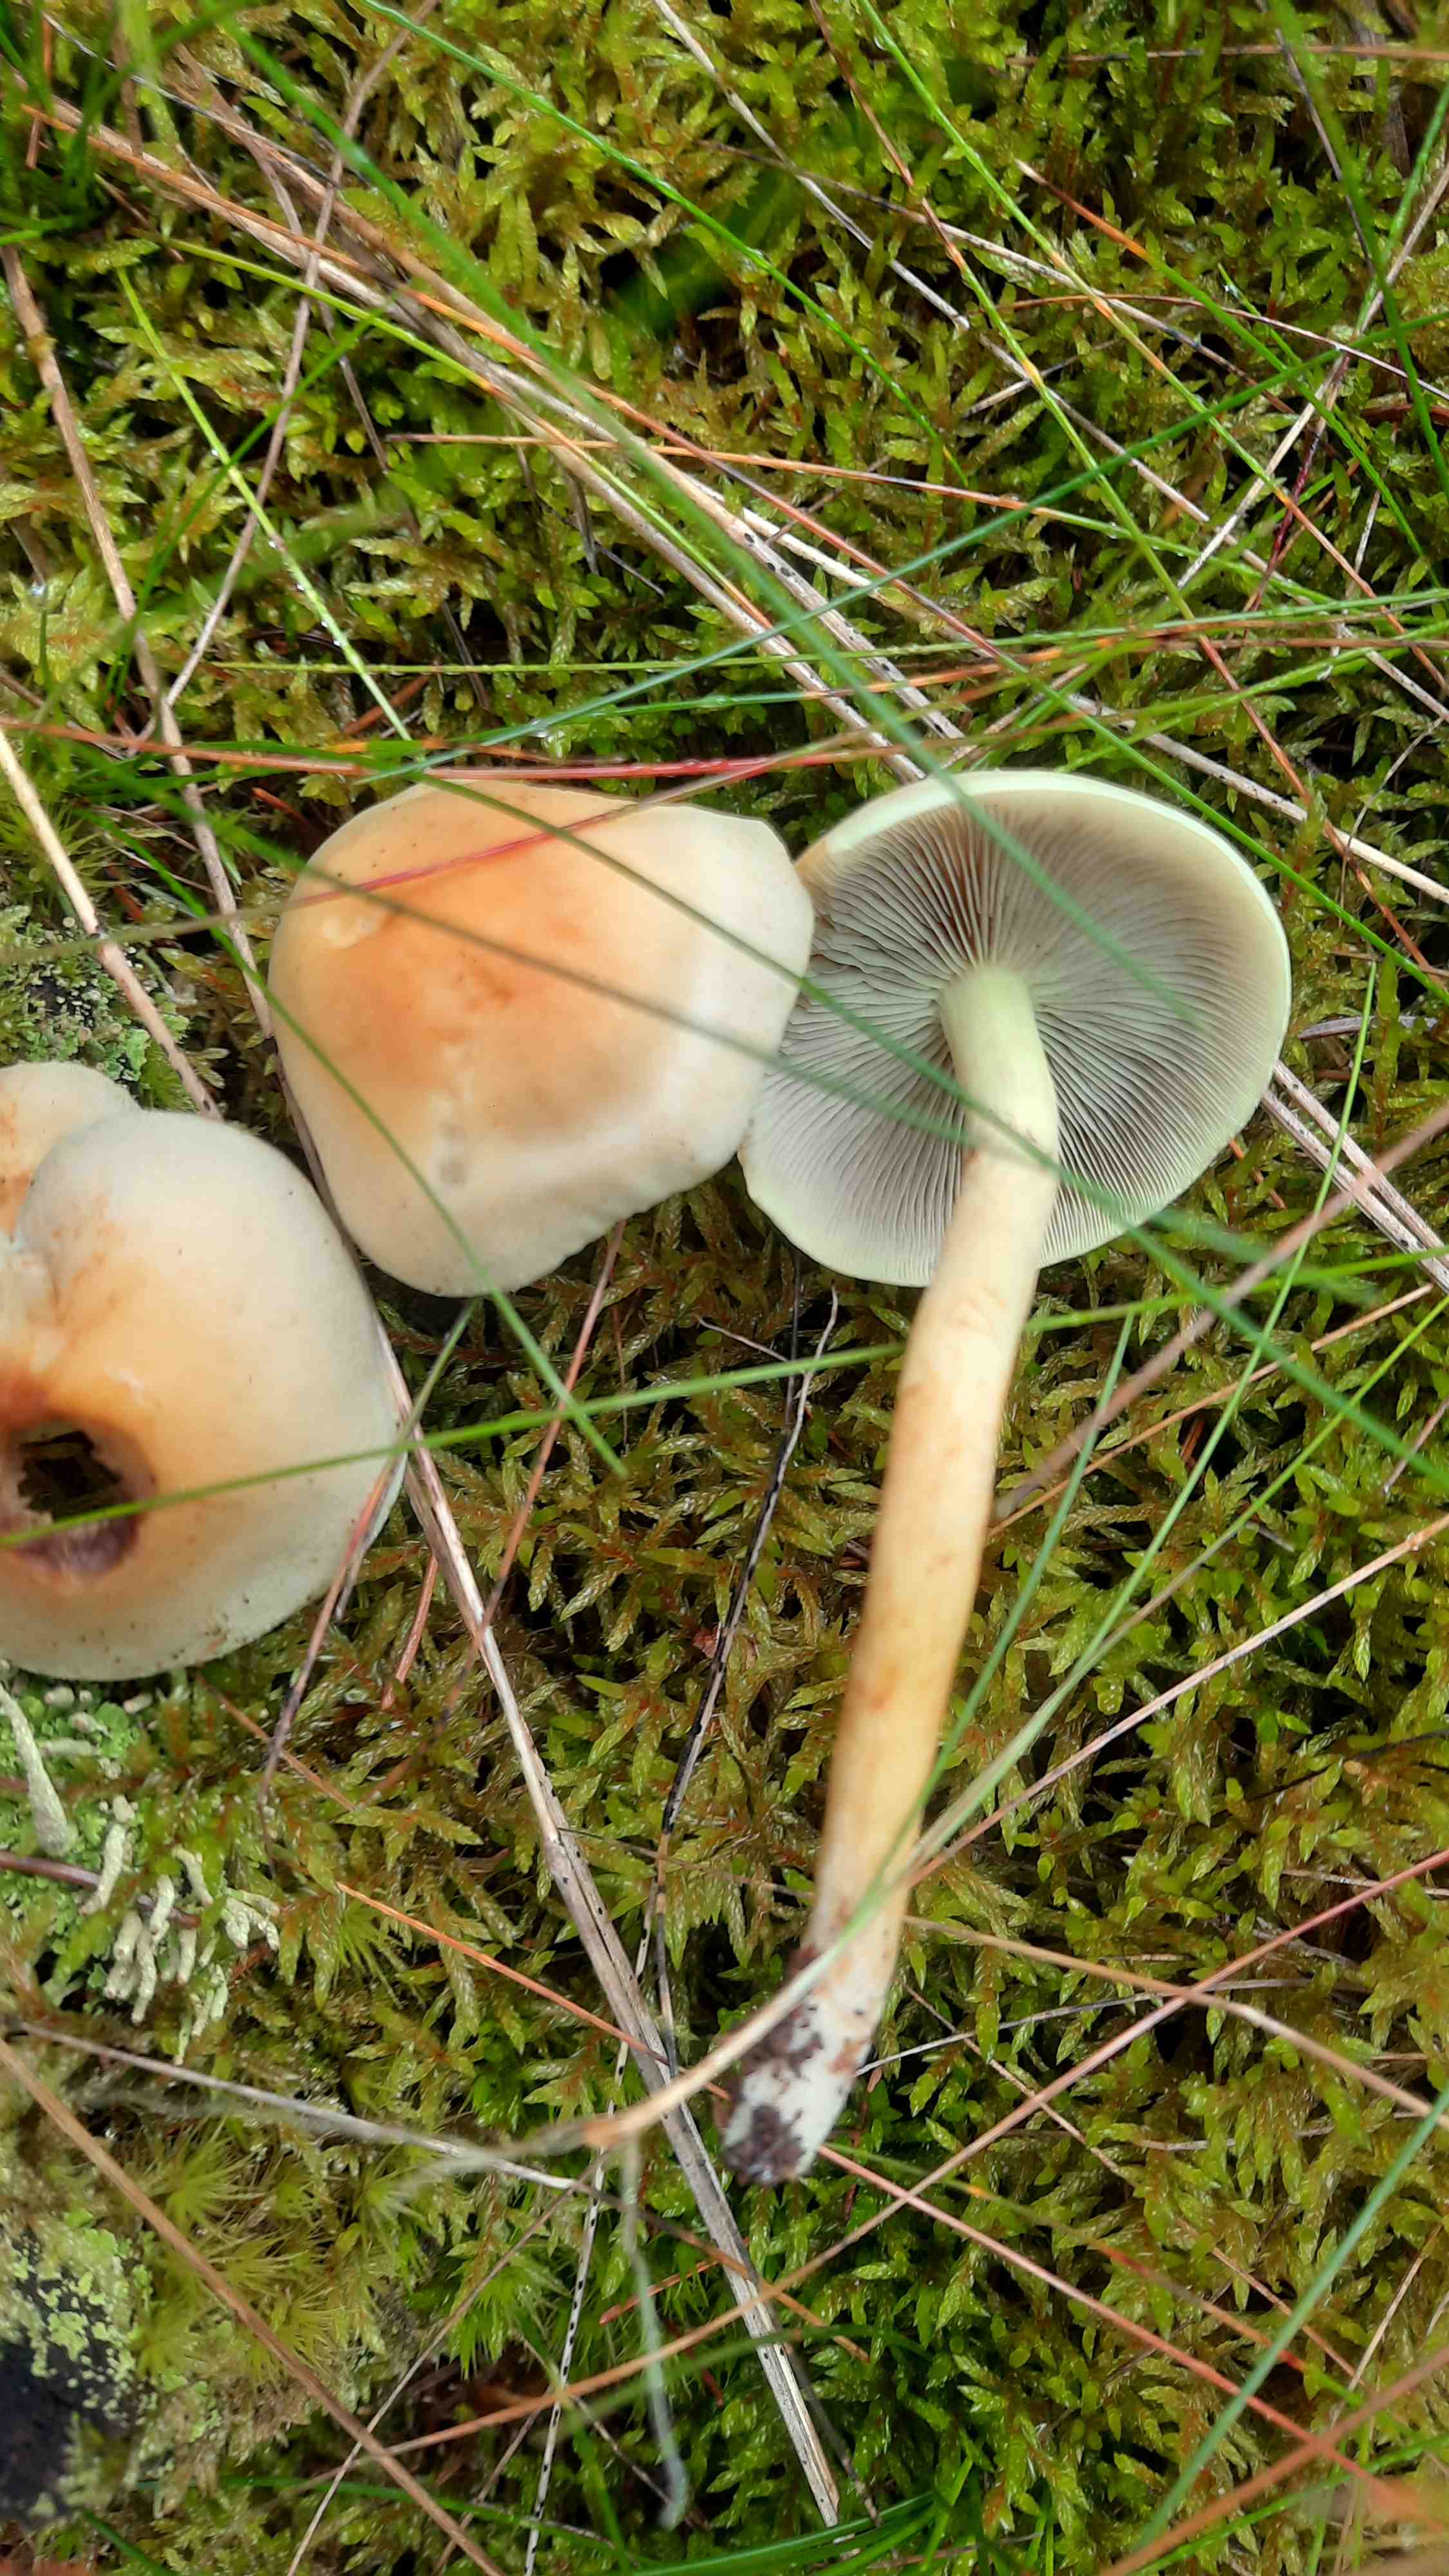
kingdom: Fungi
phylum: Basidiomycota
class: Agaricomycetes
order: Agaricales
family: Strophariaceae
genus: Hypholoma
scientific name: Hypholoma fasciculare
